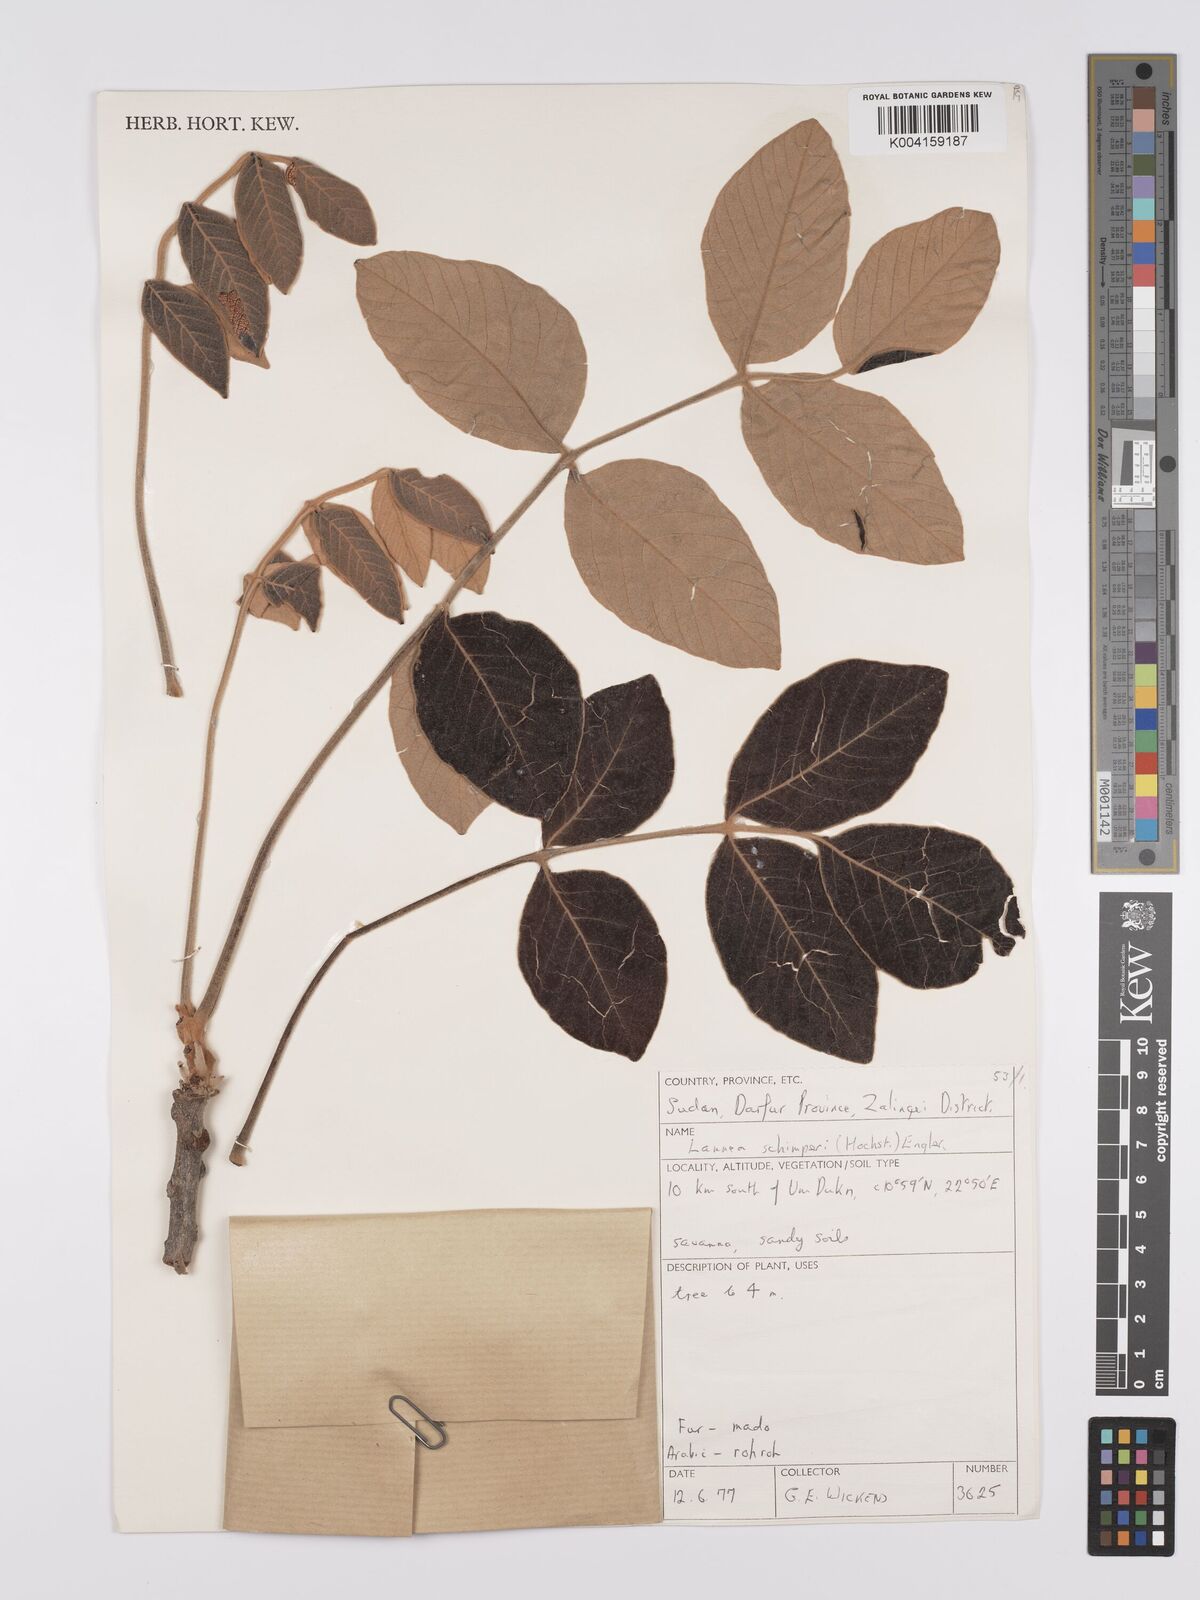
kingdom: Plantae
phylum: Tracheophyta
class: Magnoliopsida
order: Sapindales
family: Anacardiaceae
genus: Lannea
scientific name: Lannea schimperi
